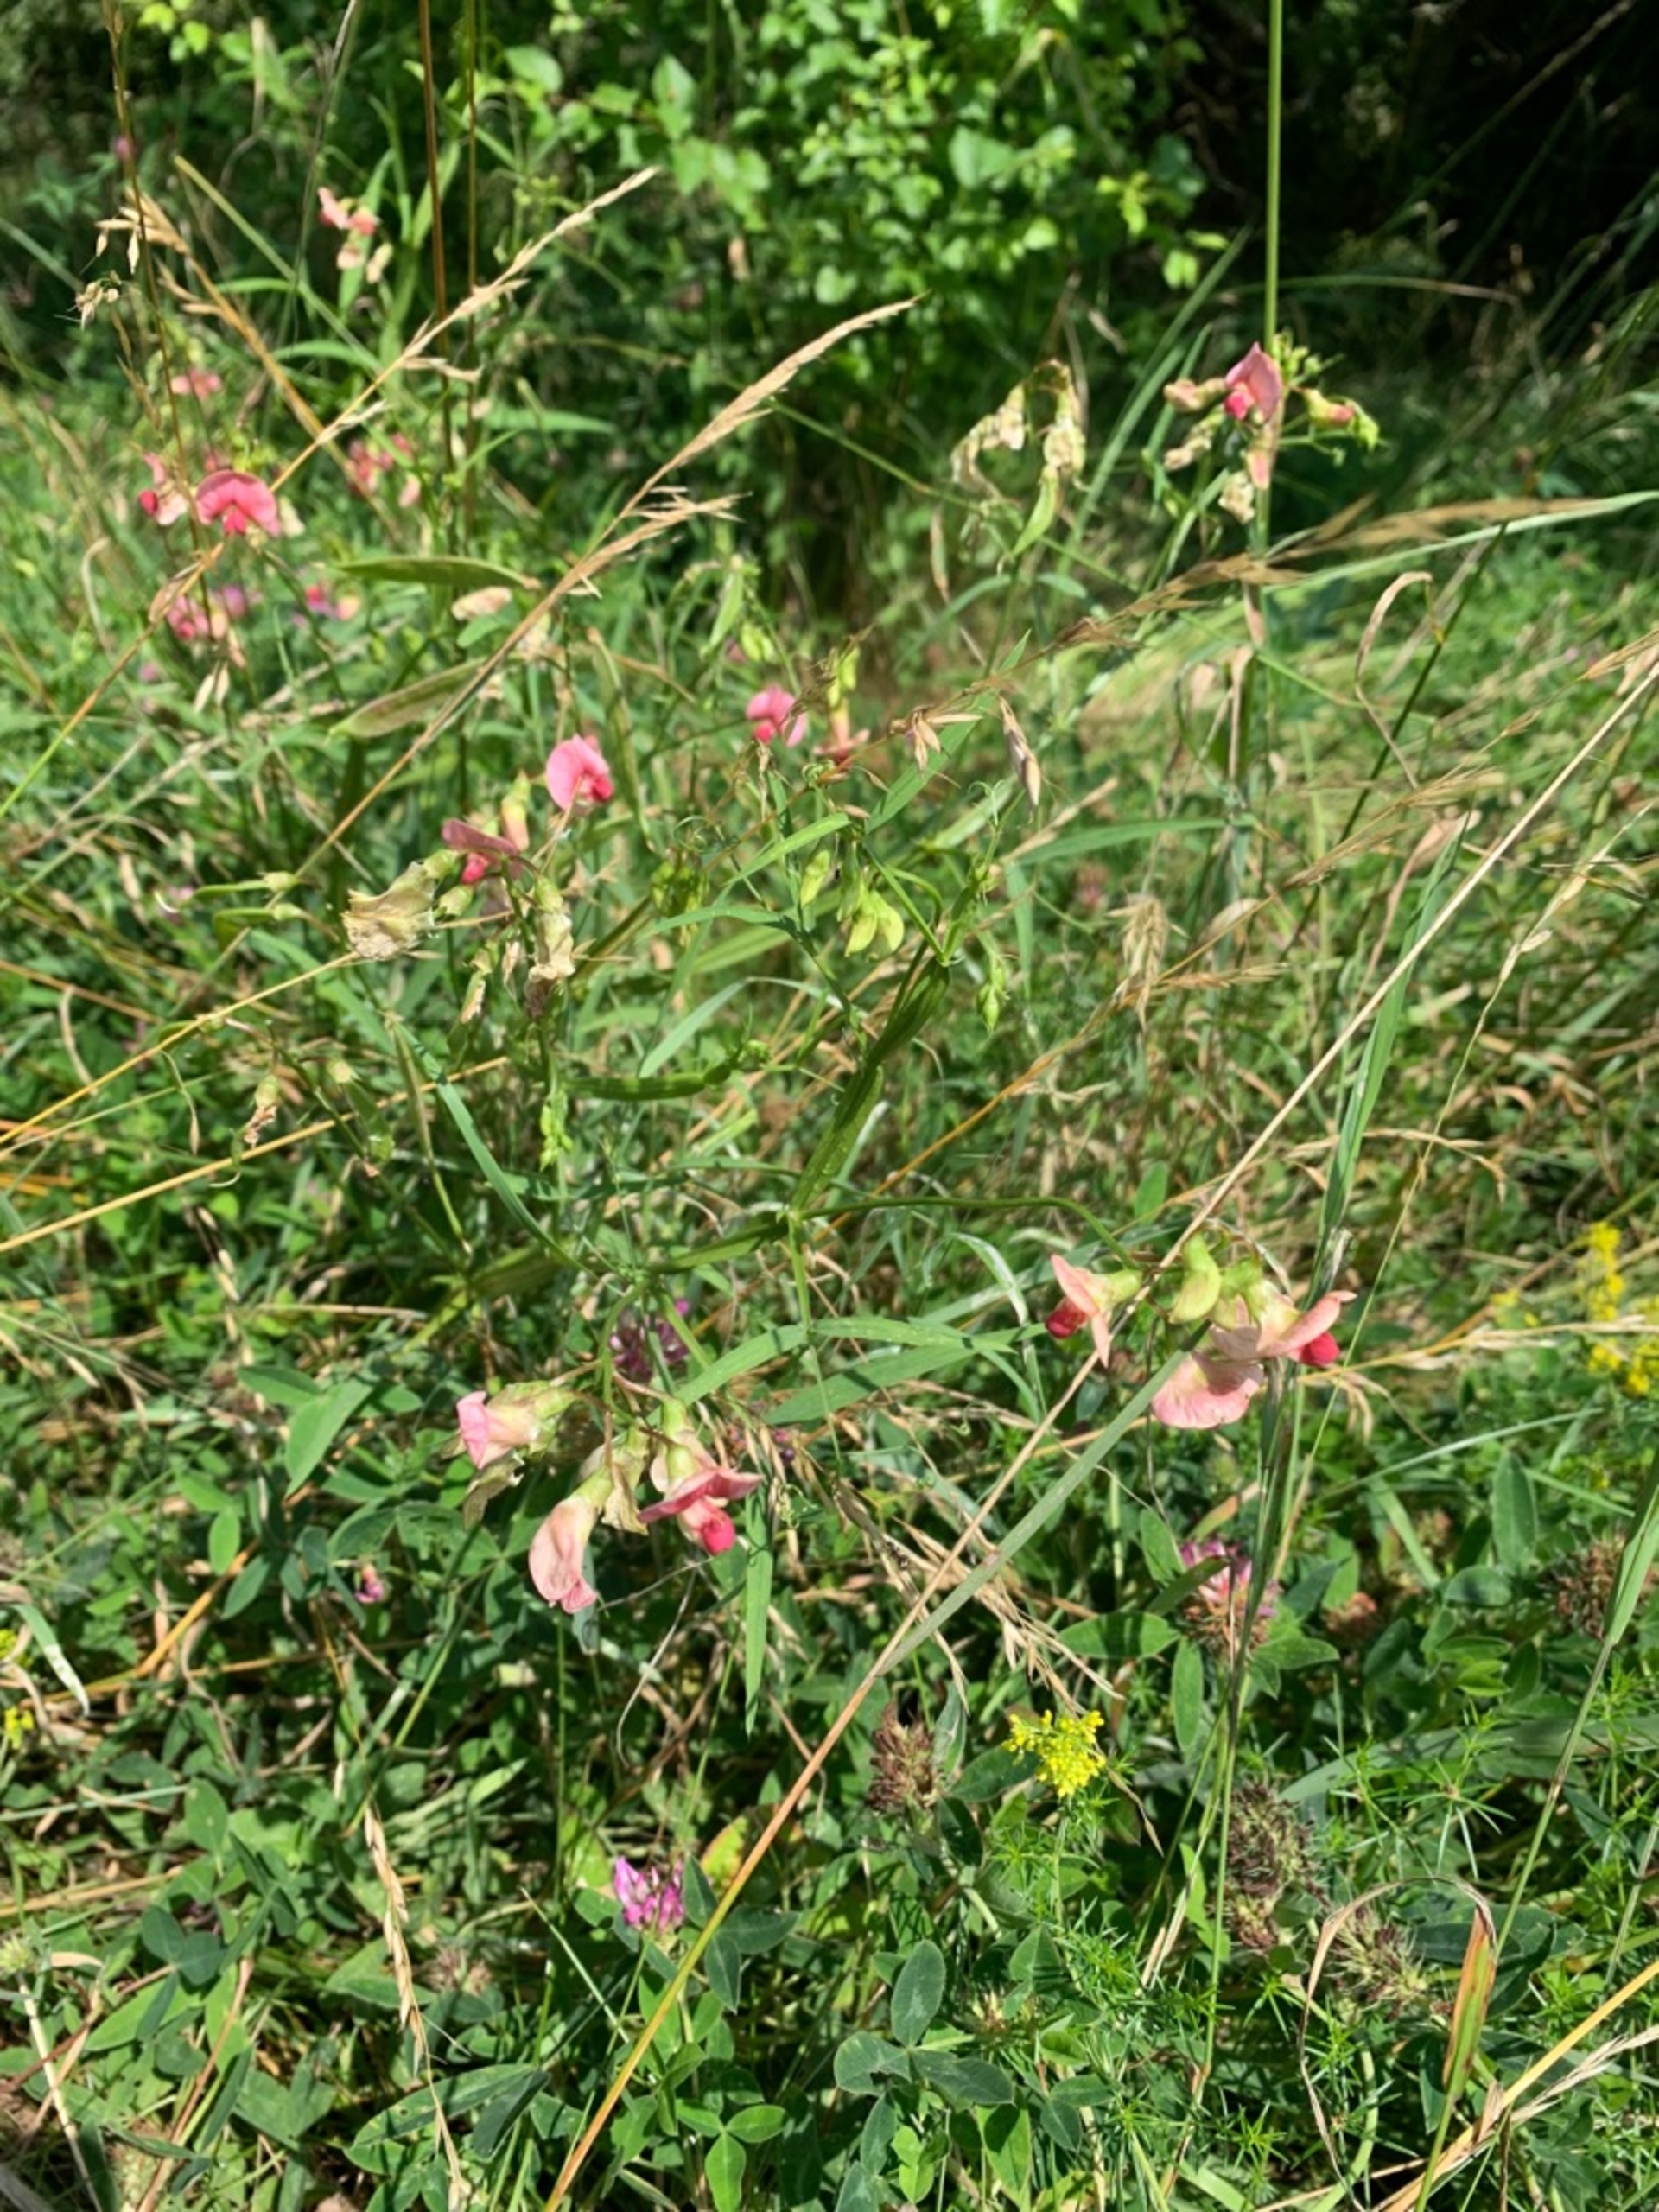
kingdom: Plantae
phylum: Tracheophyta
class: Magnoliopsida
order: Fabales
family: Fabaceae
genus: Lathyrus
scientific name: Lathyrus sylvestris
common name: Skov-fladbælg
